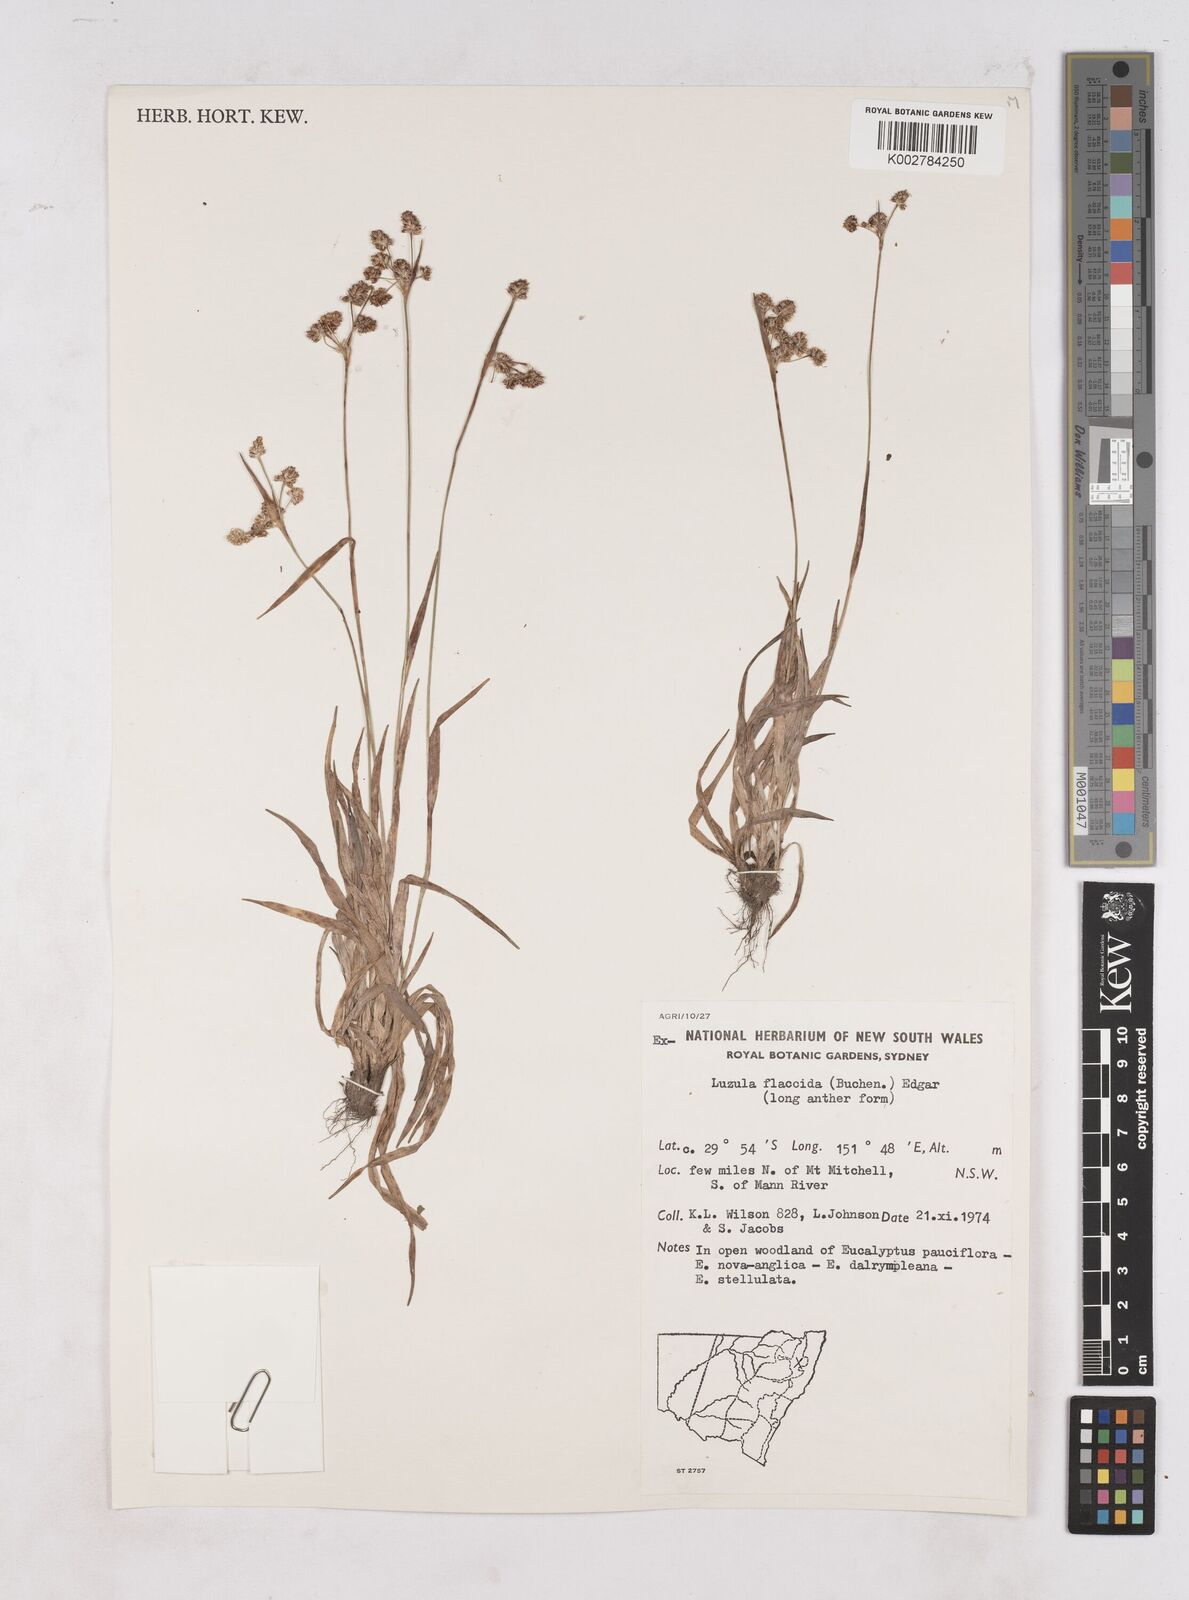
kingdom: Plantae
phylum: Tracheophyta
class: Liliopsida
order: Poales
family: Juncaceae
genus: Luzula
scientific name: Luzula flaccida
